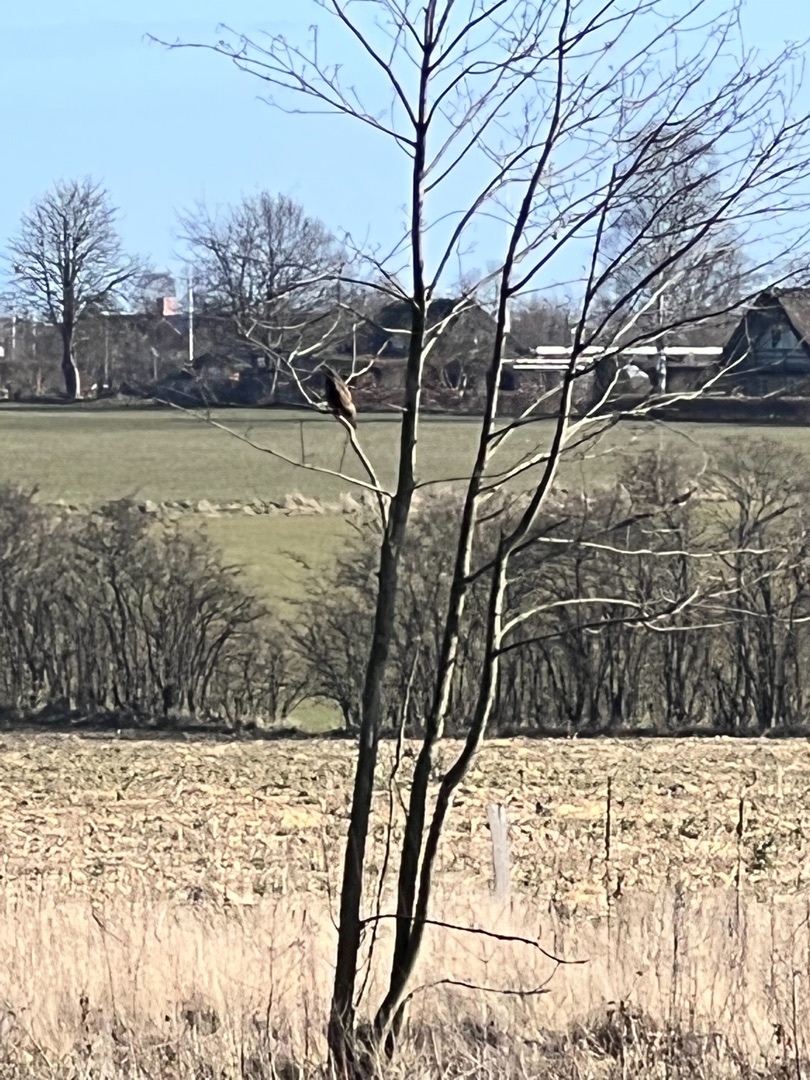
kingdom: Animalia
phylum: Chordata
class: Aves
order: Accipitriformes
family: Accipitridae
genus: Buteo
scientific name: Buteo buteo
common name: Musvåge
